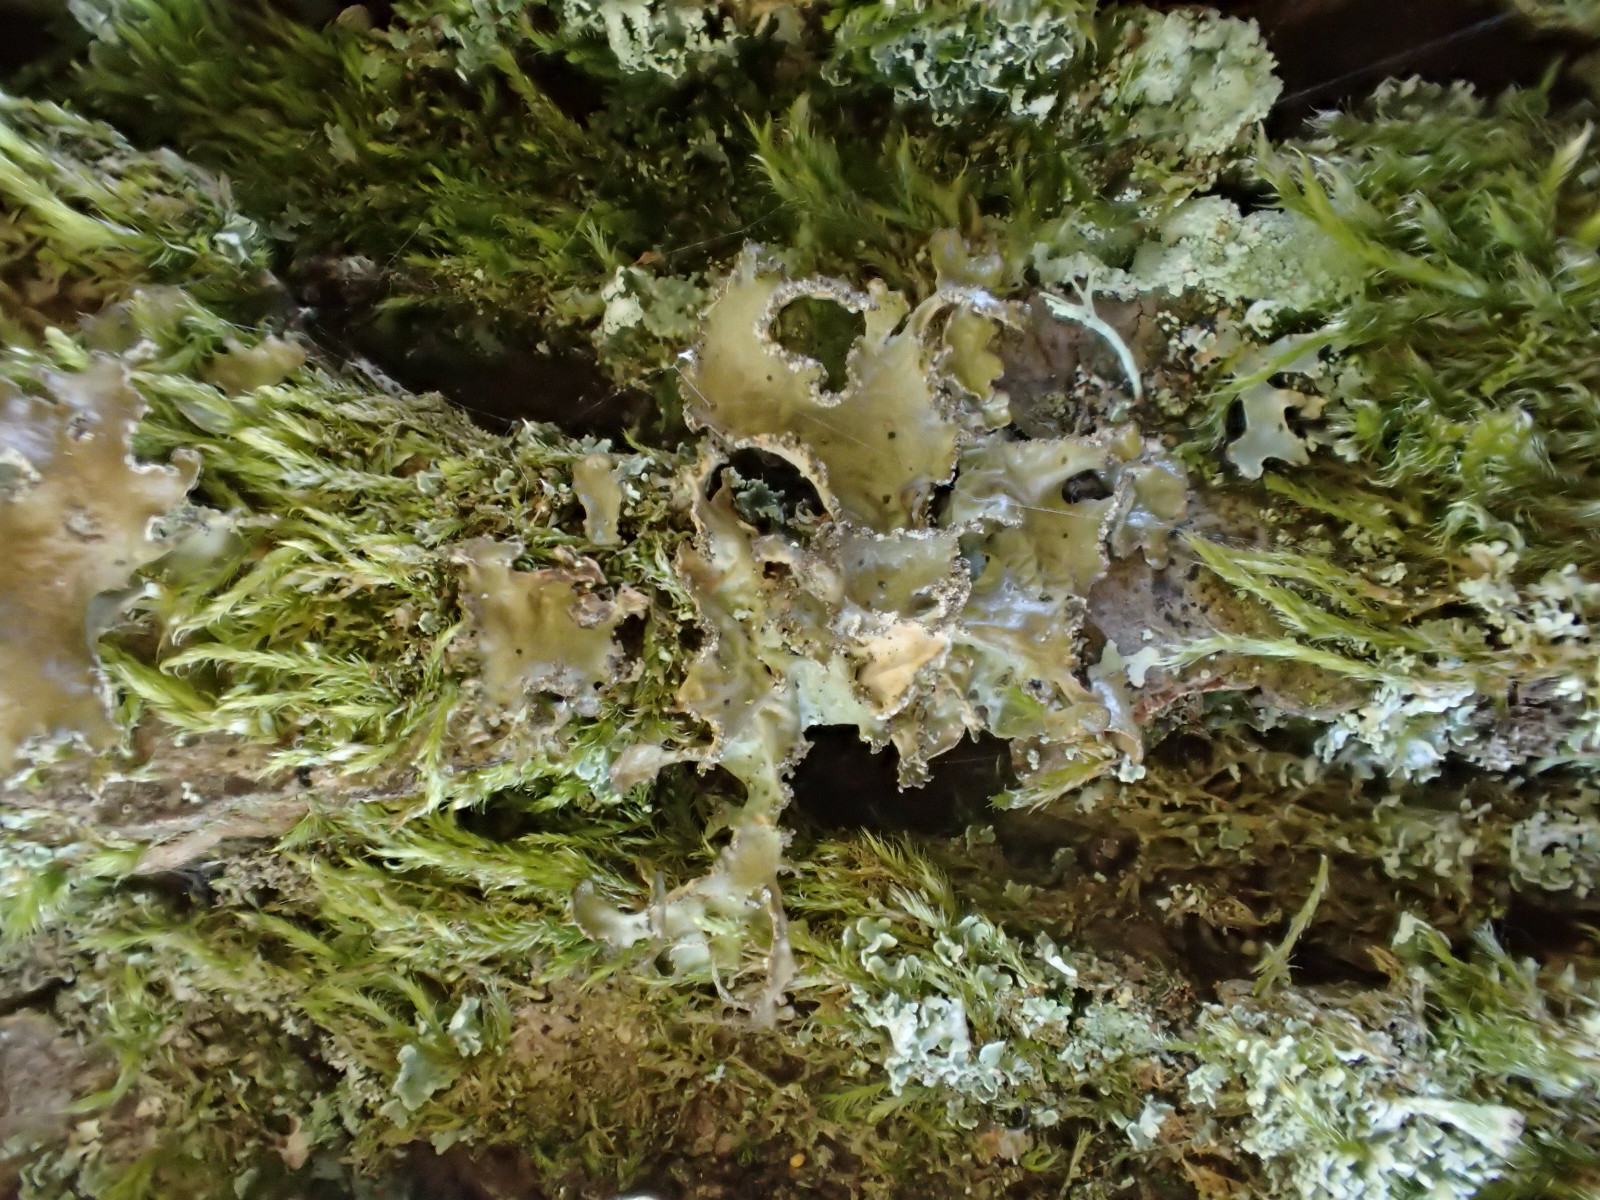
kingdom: Fungi
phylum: Ascomycota
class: Lecanoromycetes
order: Lecanorales
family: Parmeliaceae
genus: Nephromopsis
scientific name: Nephromopsis chlorophylla
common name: olivenbrun kruslav
